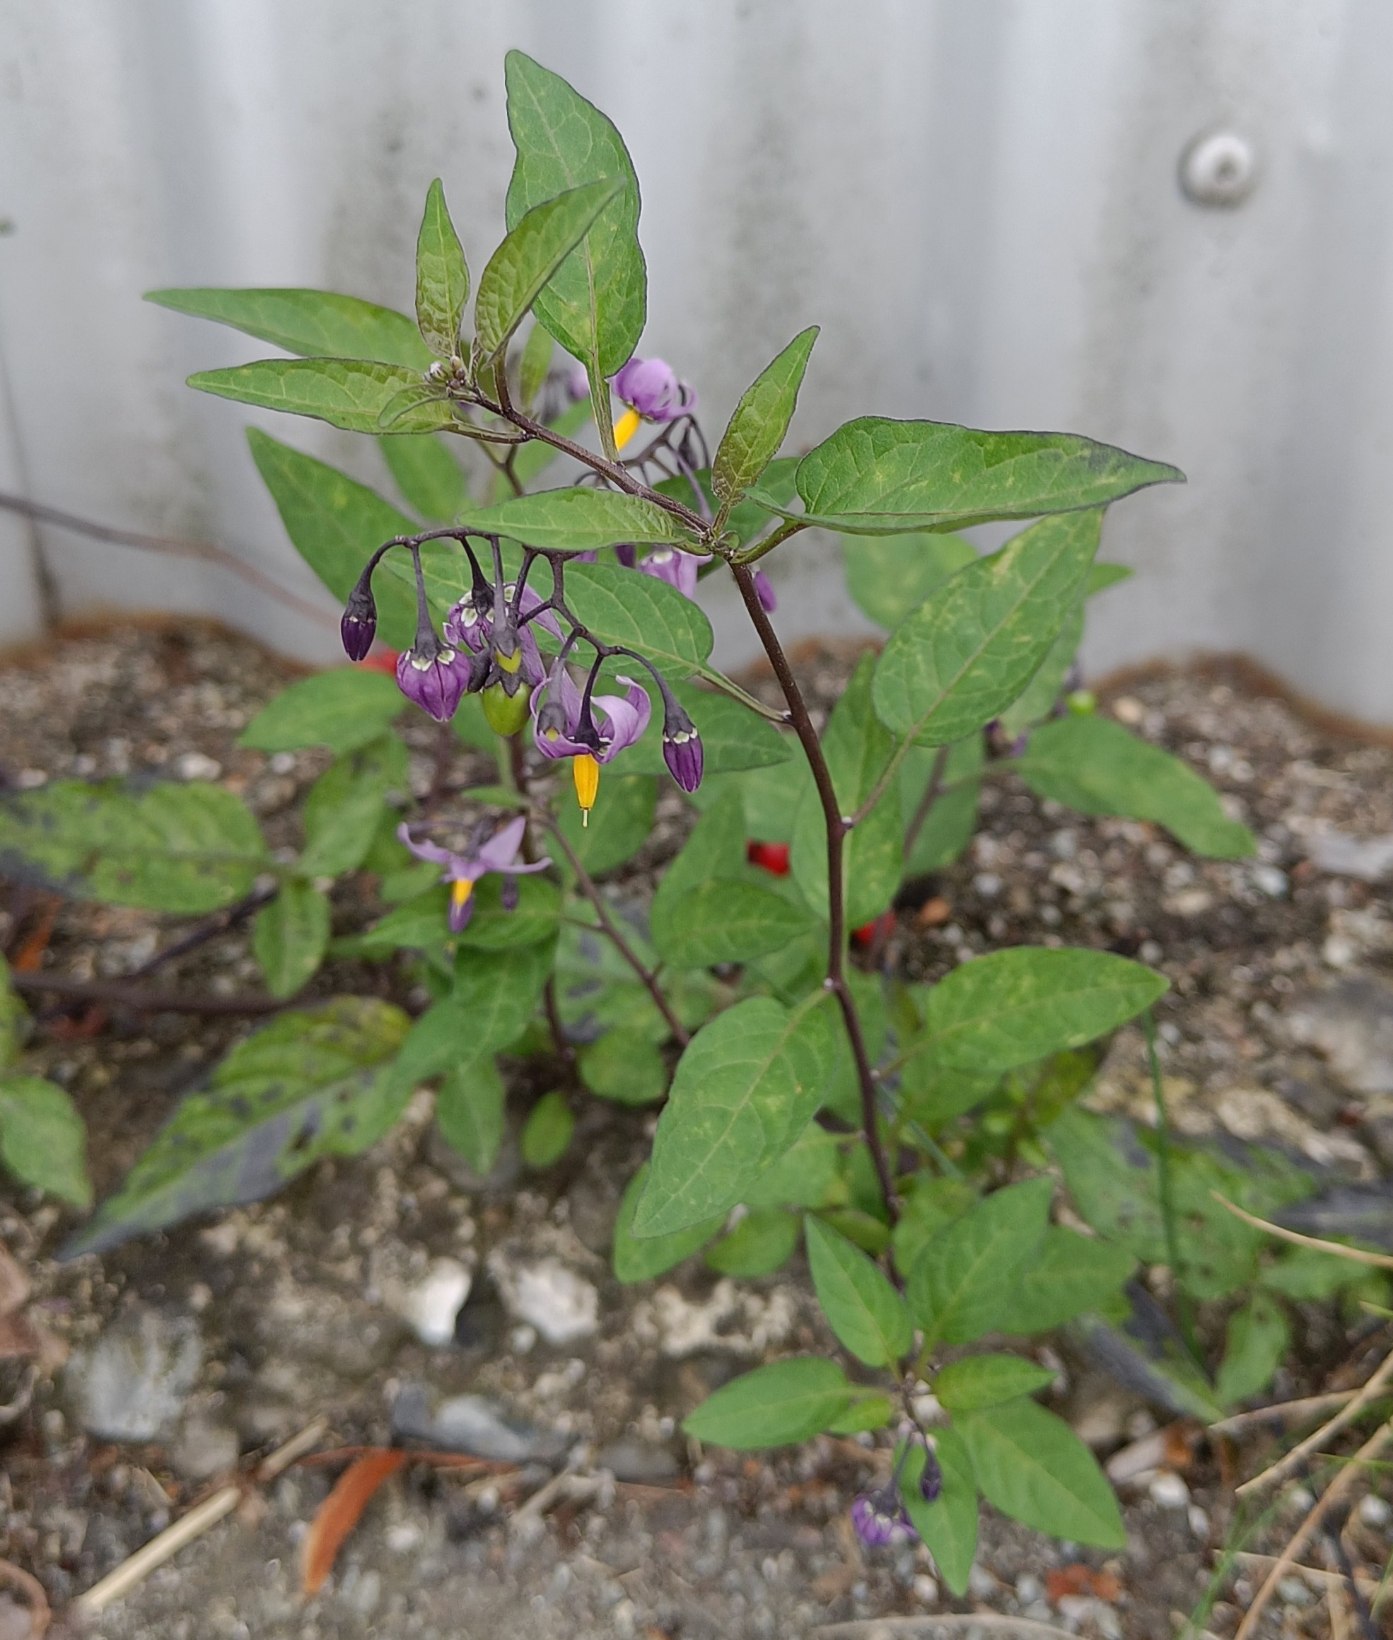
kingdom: Plantae
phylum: Tracheophyta
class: Magnoliopsida
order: Solanales
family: Solanaceae
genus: Solanum
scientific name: Solanum dulcamara
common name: Bittersød natskygge
